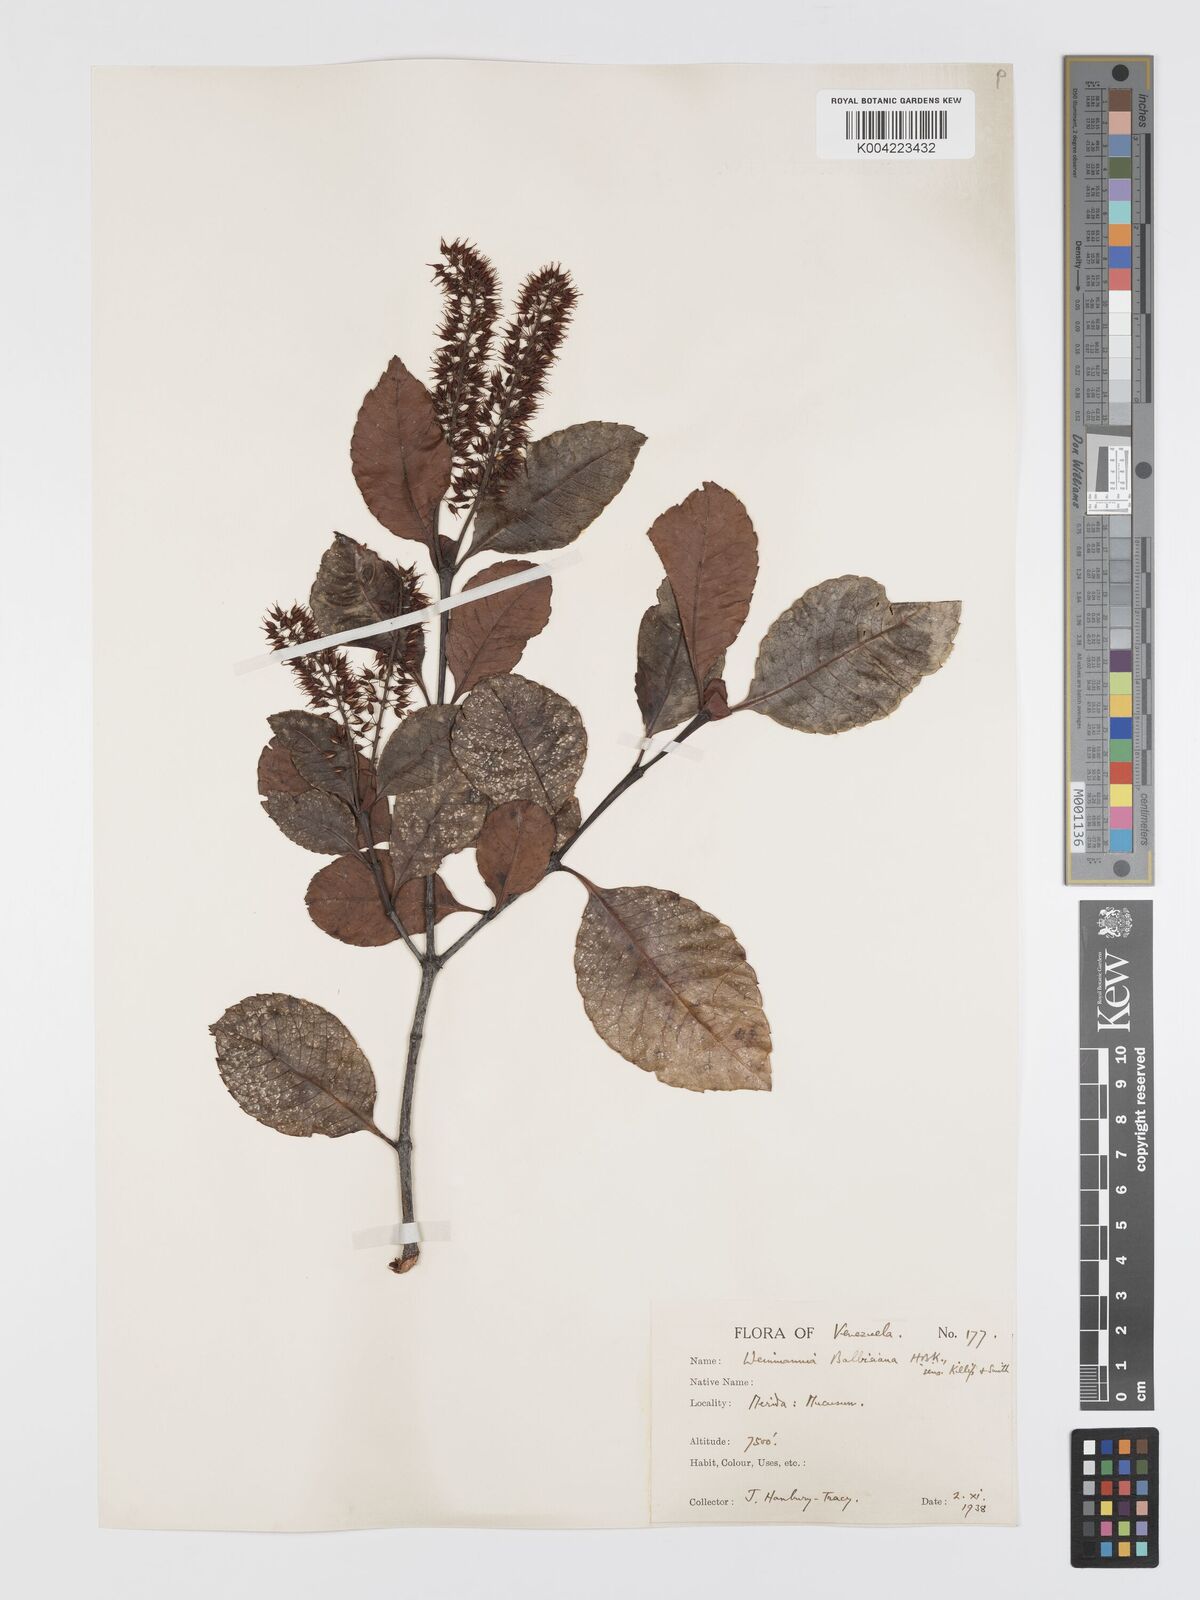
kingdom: Plantae
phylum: Tracheophyta
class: Magnoliopsida
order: Oxalidales
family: Cunoniaceae
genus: Weinmannia
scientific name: Weinmannia balbisana
